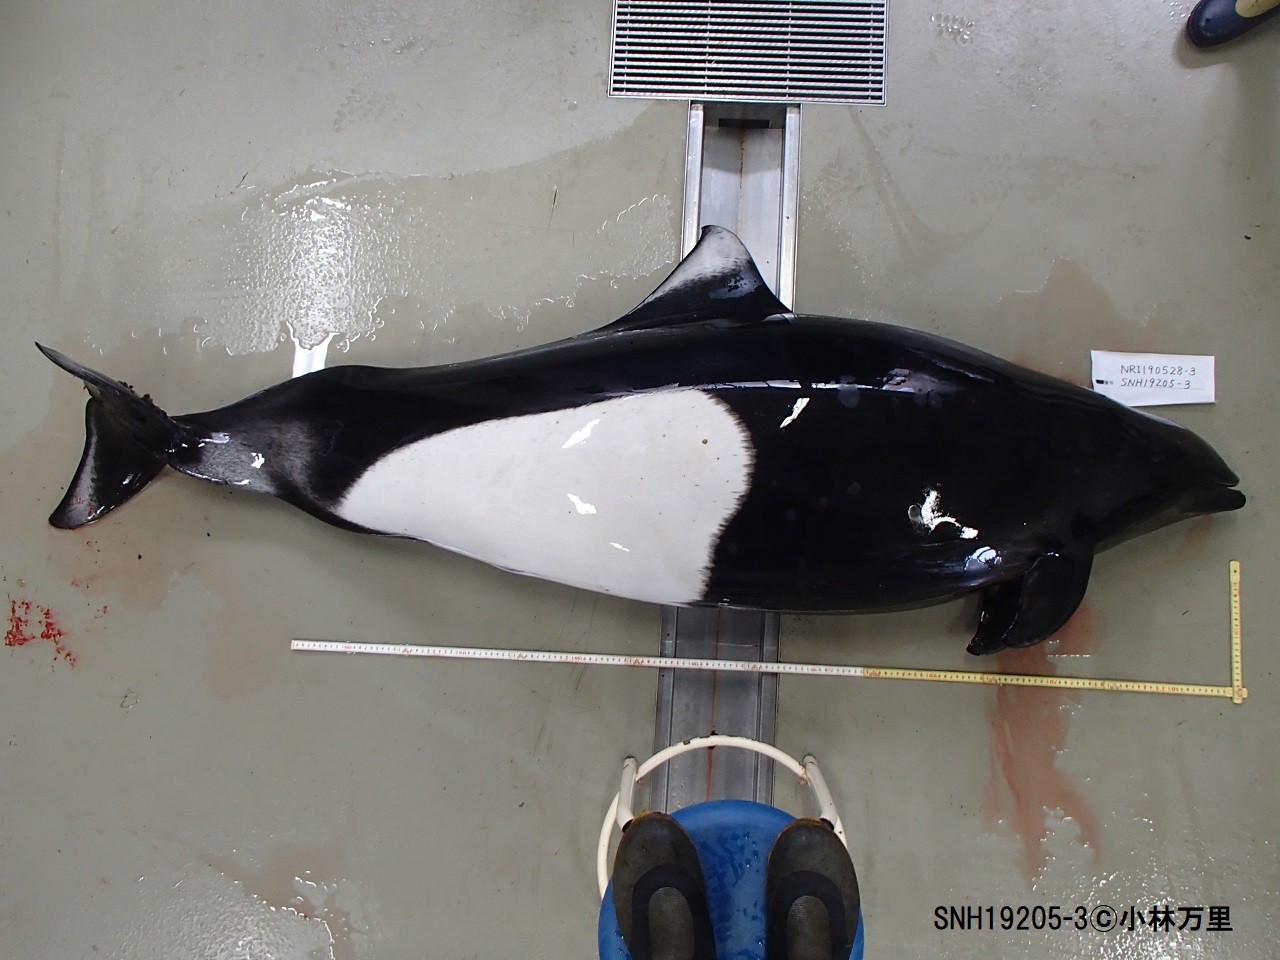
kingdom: Animalia
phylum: Chordata
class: Mammalia
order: Cetacea
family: Phocoenidae
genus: Phocoenoides
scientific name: Phocoenoides dalli
